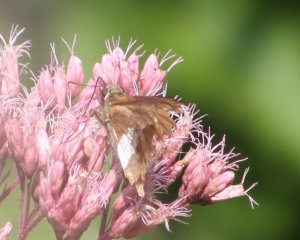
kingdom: Animalia
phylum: Arthropoda
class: Insecta
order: Lepidoptera
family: Hesperiidae
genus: Epargyreus
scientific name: Epargyreus clarus
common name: Silver-spotted Skipper
